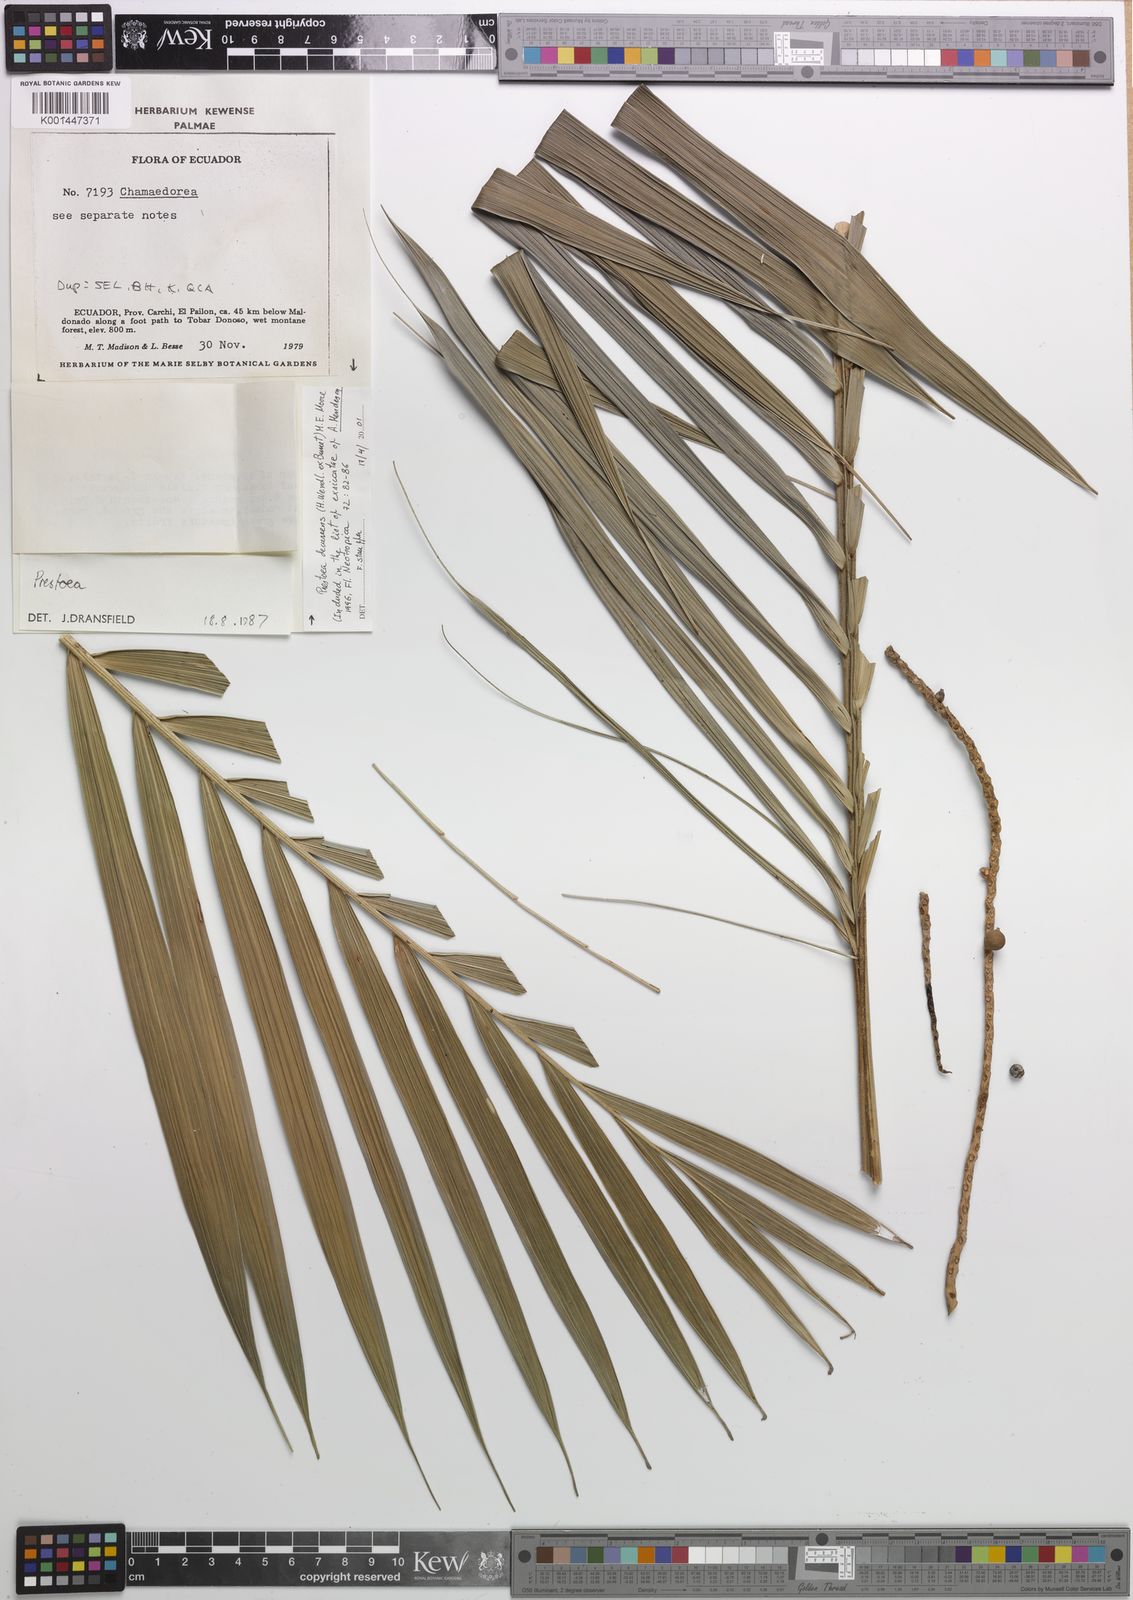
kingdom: Plantae
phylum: Tracheophyta
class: Liliopsida
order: Arecales
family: Arecaceae
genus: Prestoea
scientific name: Prestoea decurrens
